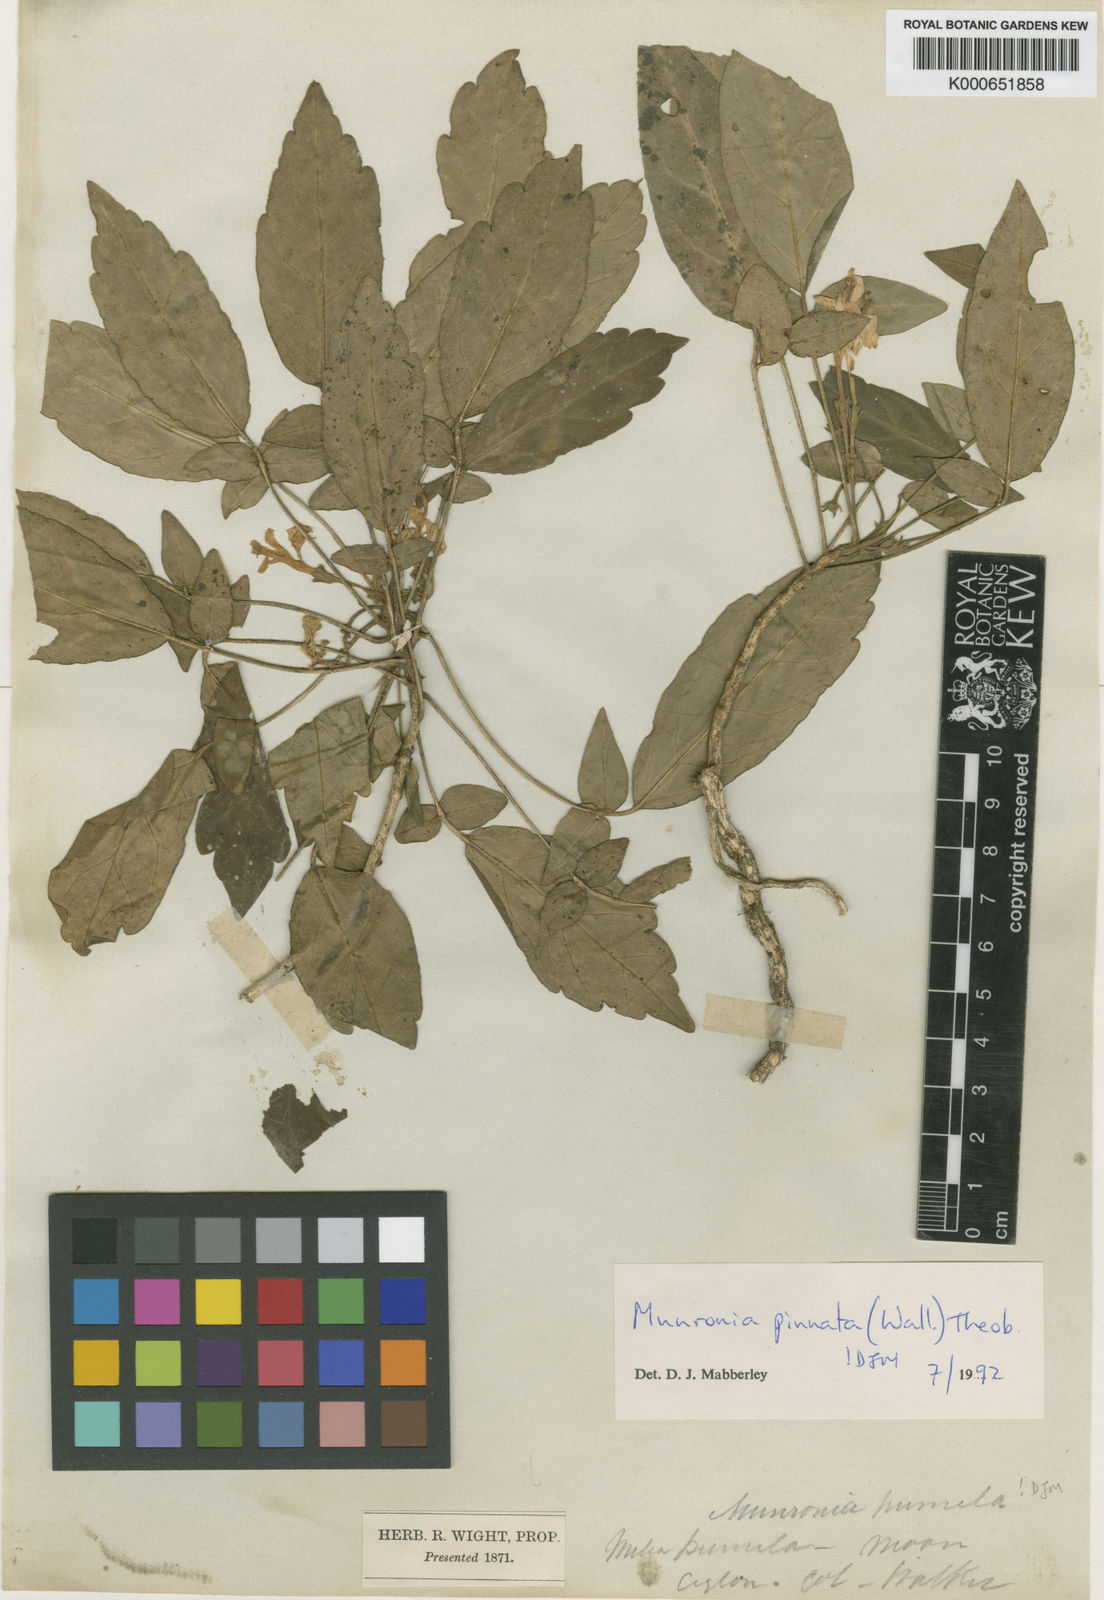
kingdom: Plantae
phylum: Tracheophyta
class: Magnoliopsida
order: Sapindales
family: Meliaceae
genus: Munronia
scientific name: Munronia pinnata
